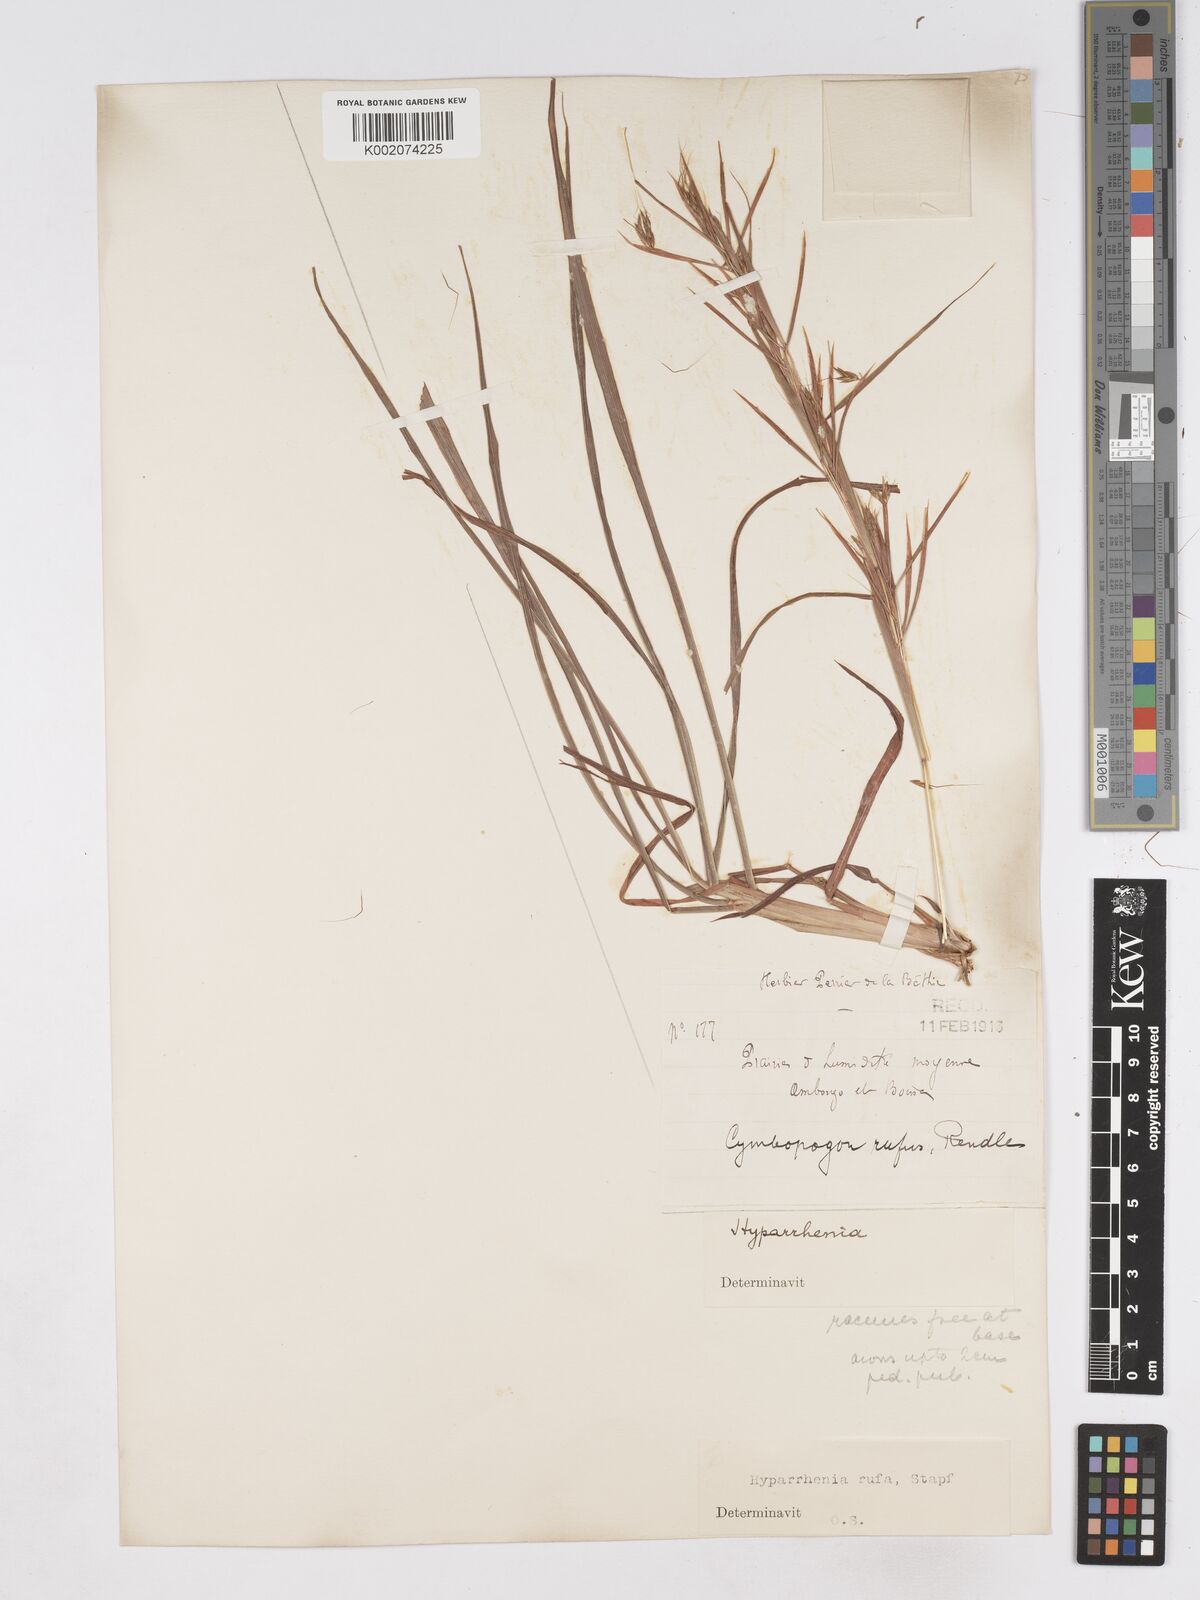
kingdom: Plantae
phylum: Tracheophyta
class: Liliopsida
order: Poales
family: Poaceae
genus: Hyparrhenia
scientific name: Hyparrhenia rufa
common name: Jaraguagrass
